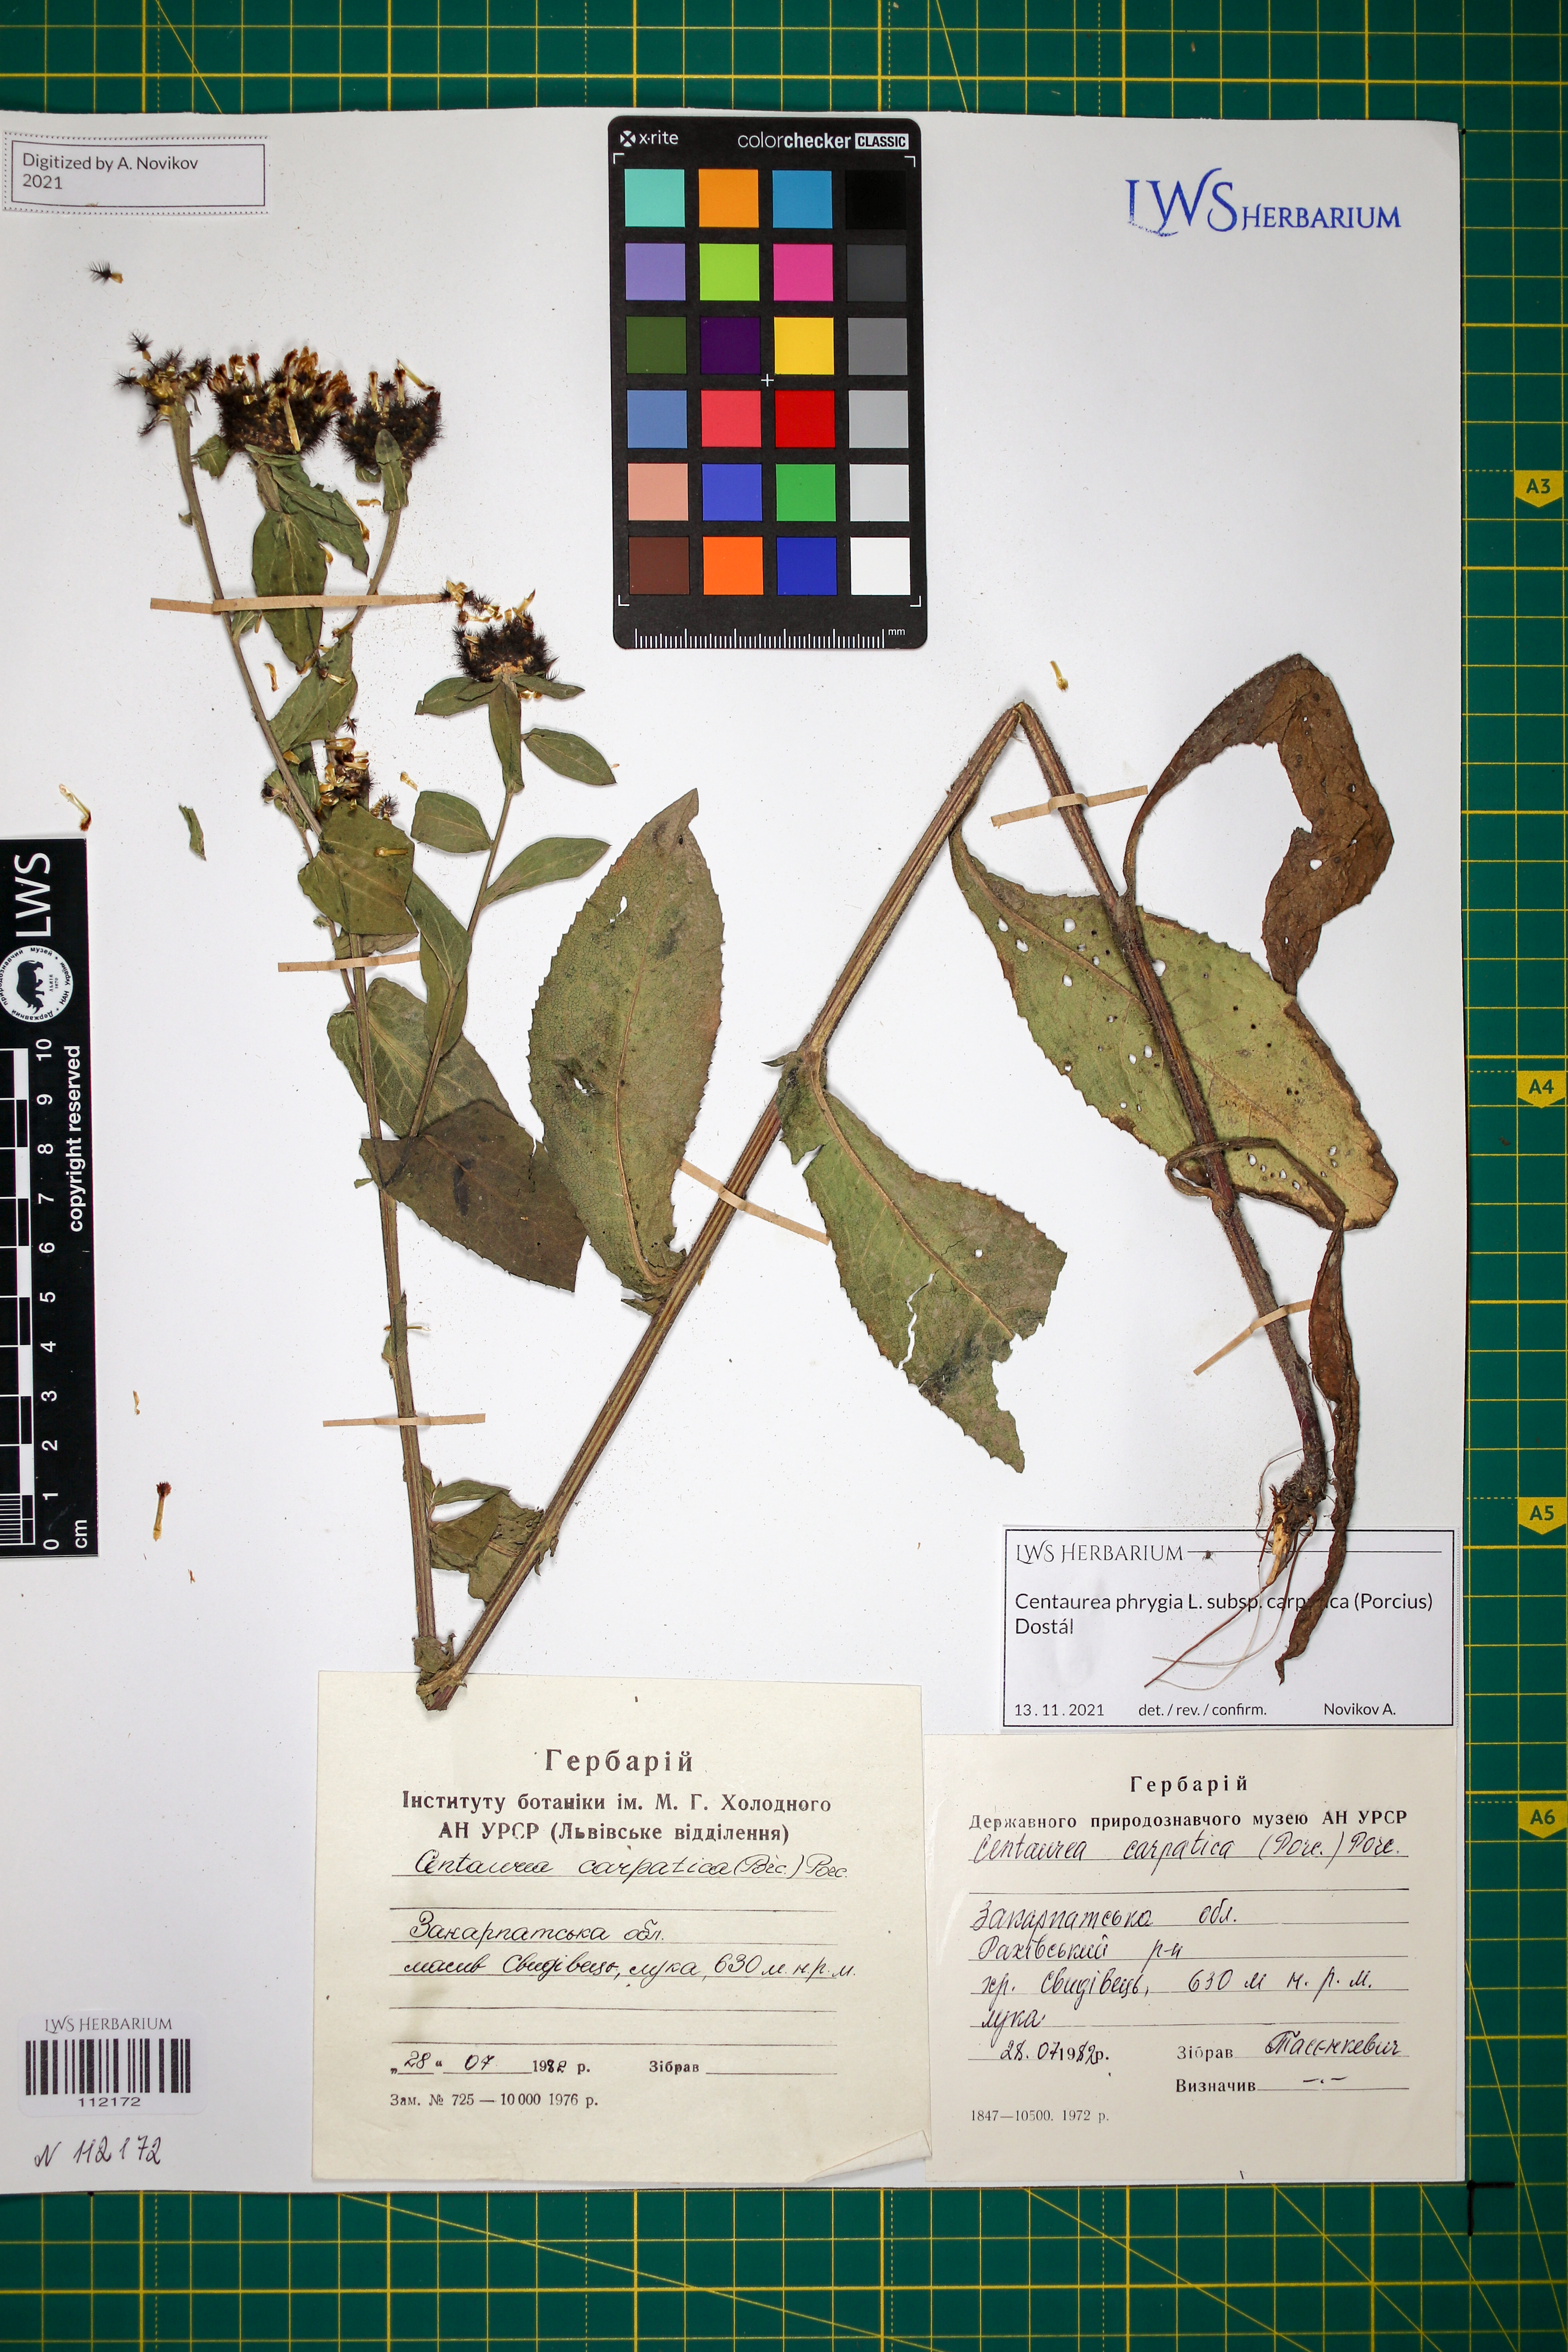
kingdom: Plantae
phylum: Tracheophyta
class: Magnoliopsida
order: Asterales
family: Asteraceae
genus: Centaurea
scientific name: Centaurea phrygia
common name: Wig knapweed
